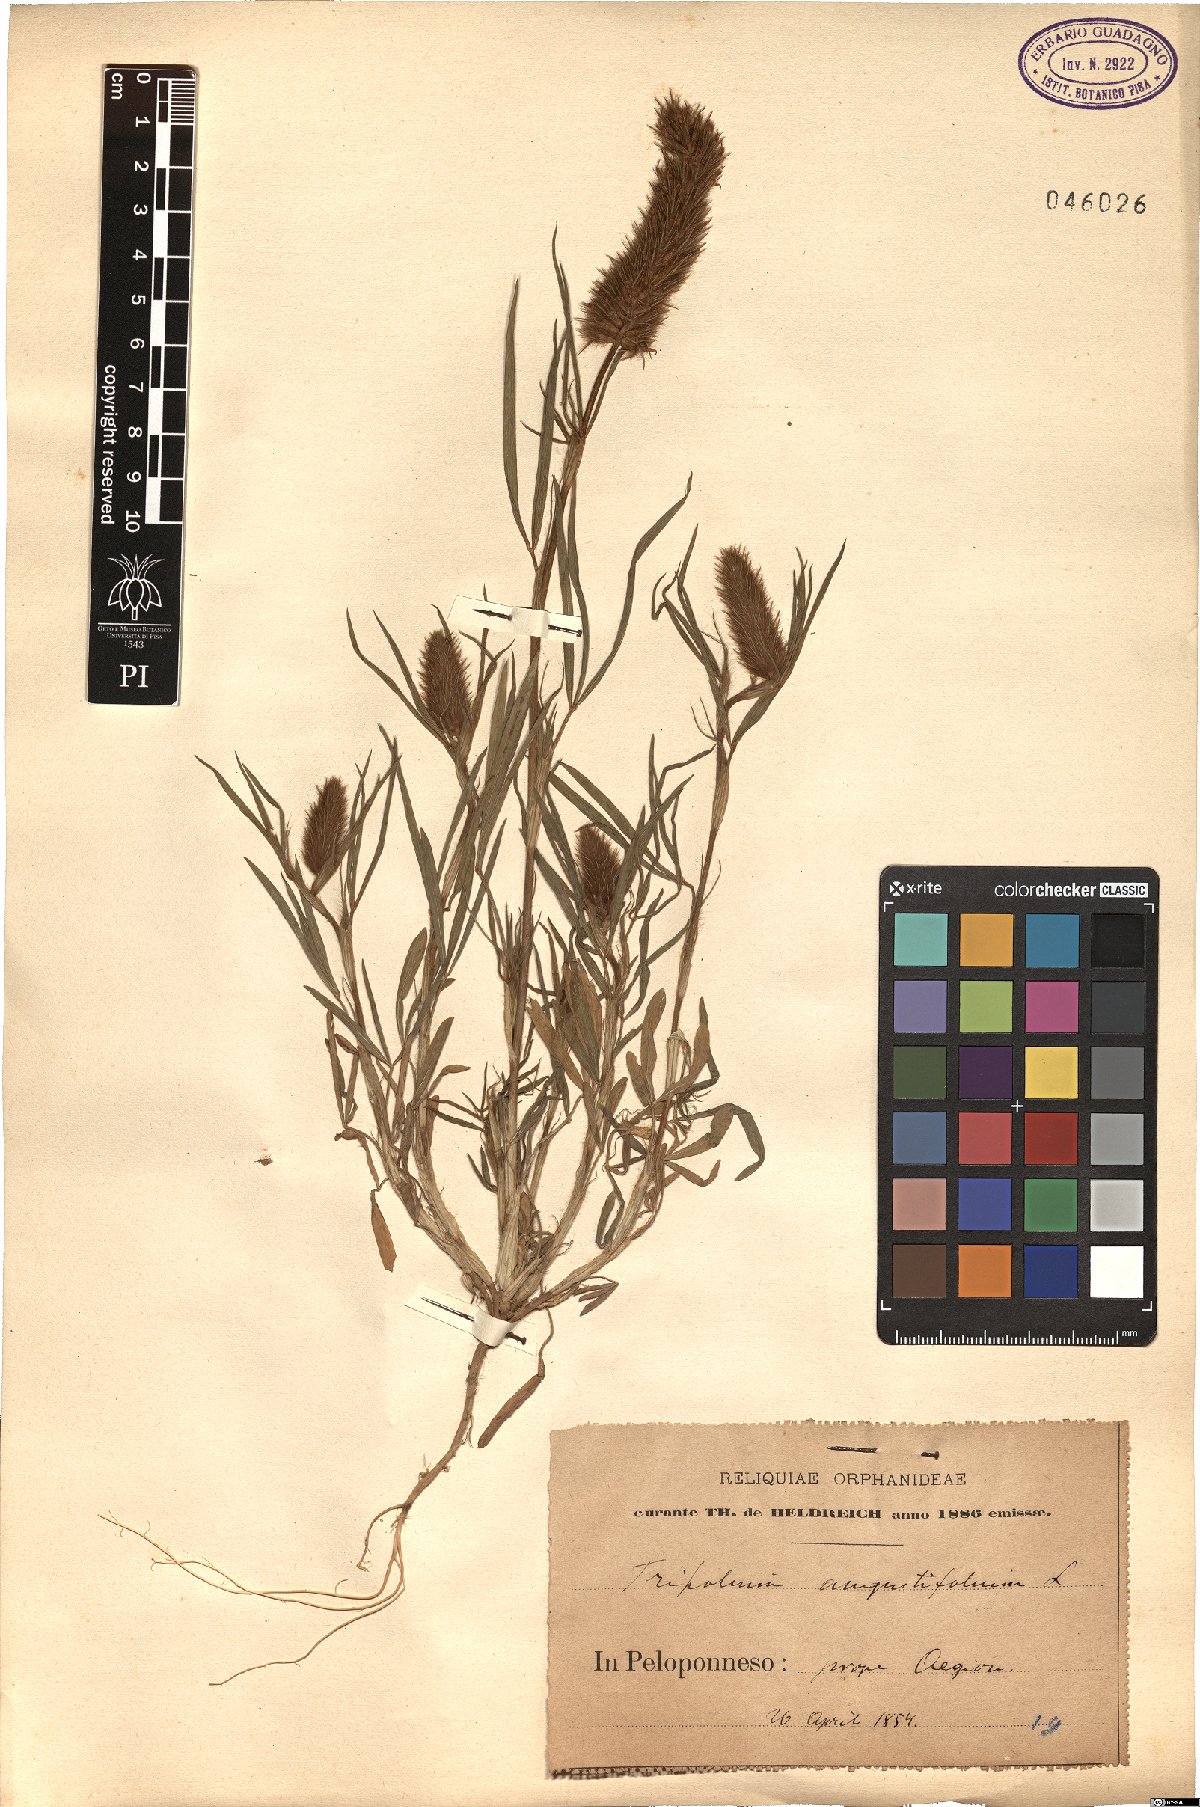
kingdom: Plantae
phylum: Tracheophyta
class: Magnoliopsida
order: Fabales
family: Fabaceae
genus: Trifolium
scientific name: Trifolium angustifolium
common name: Narrow clover
